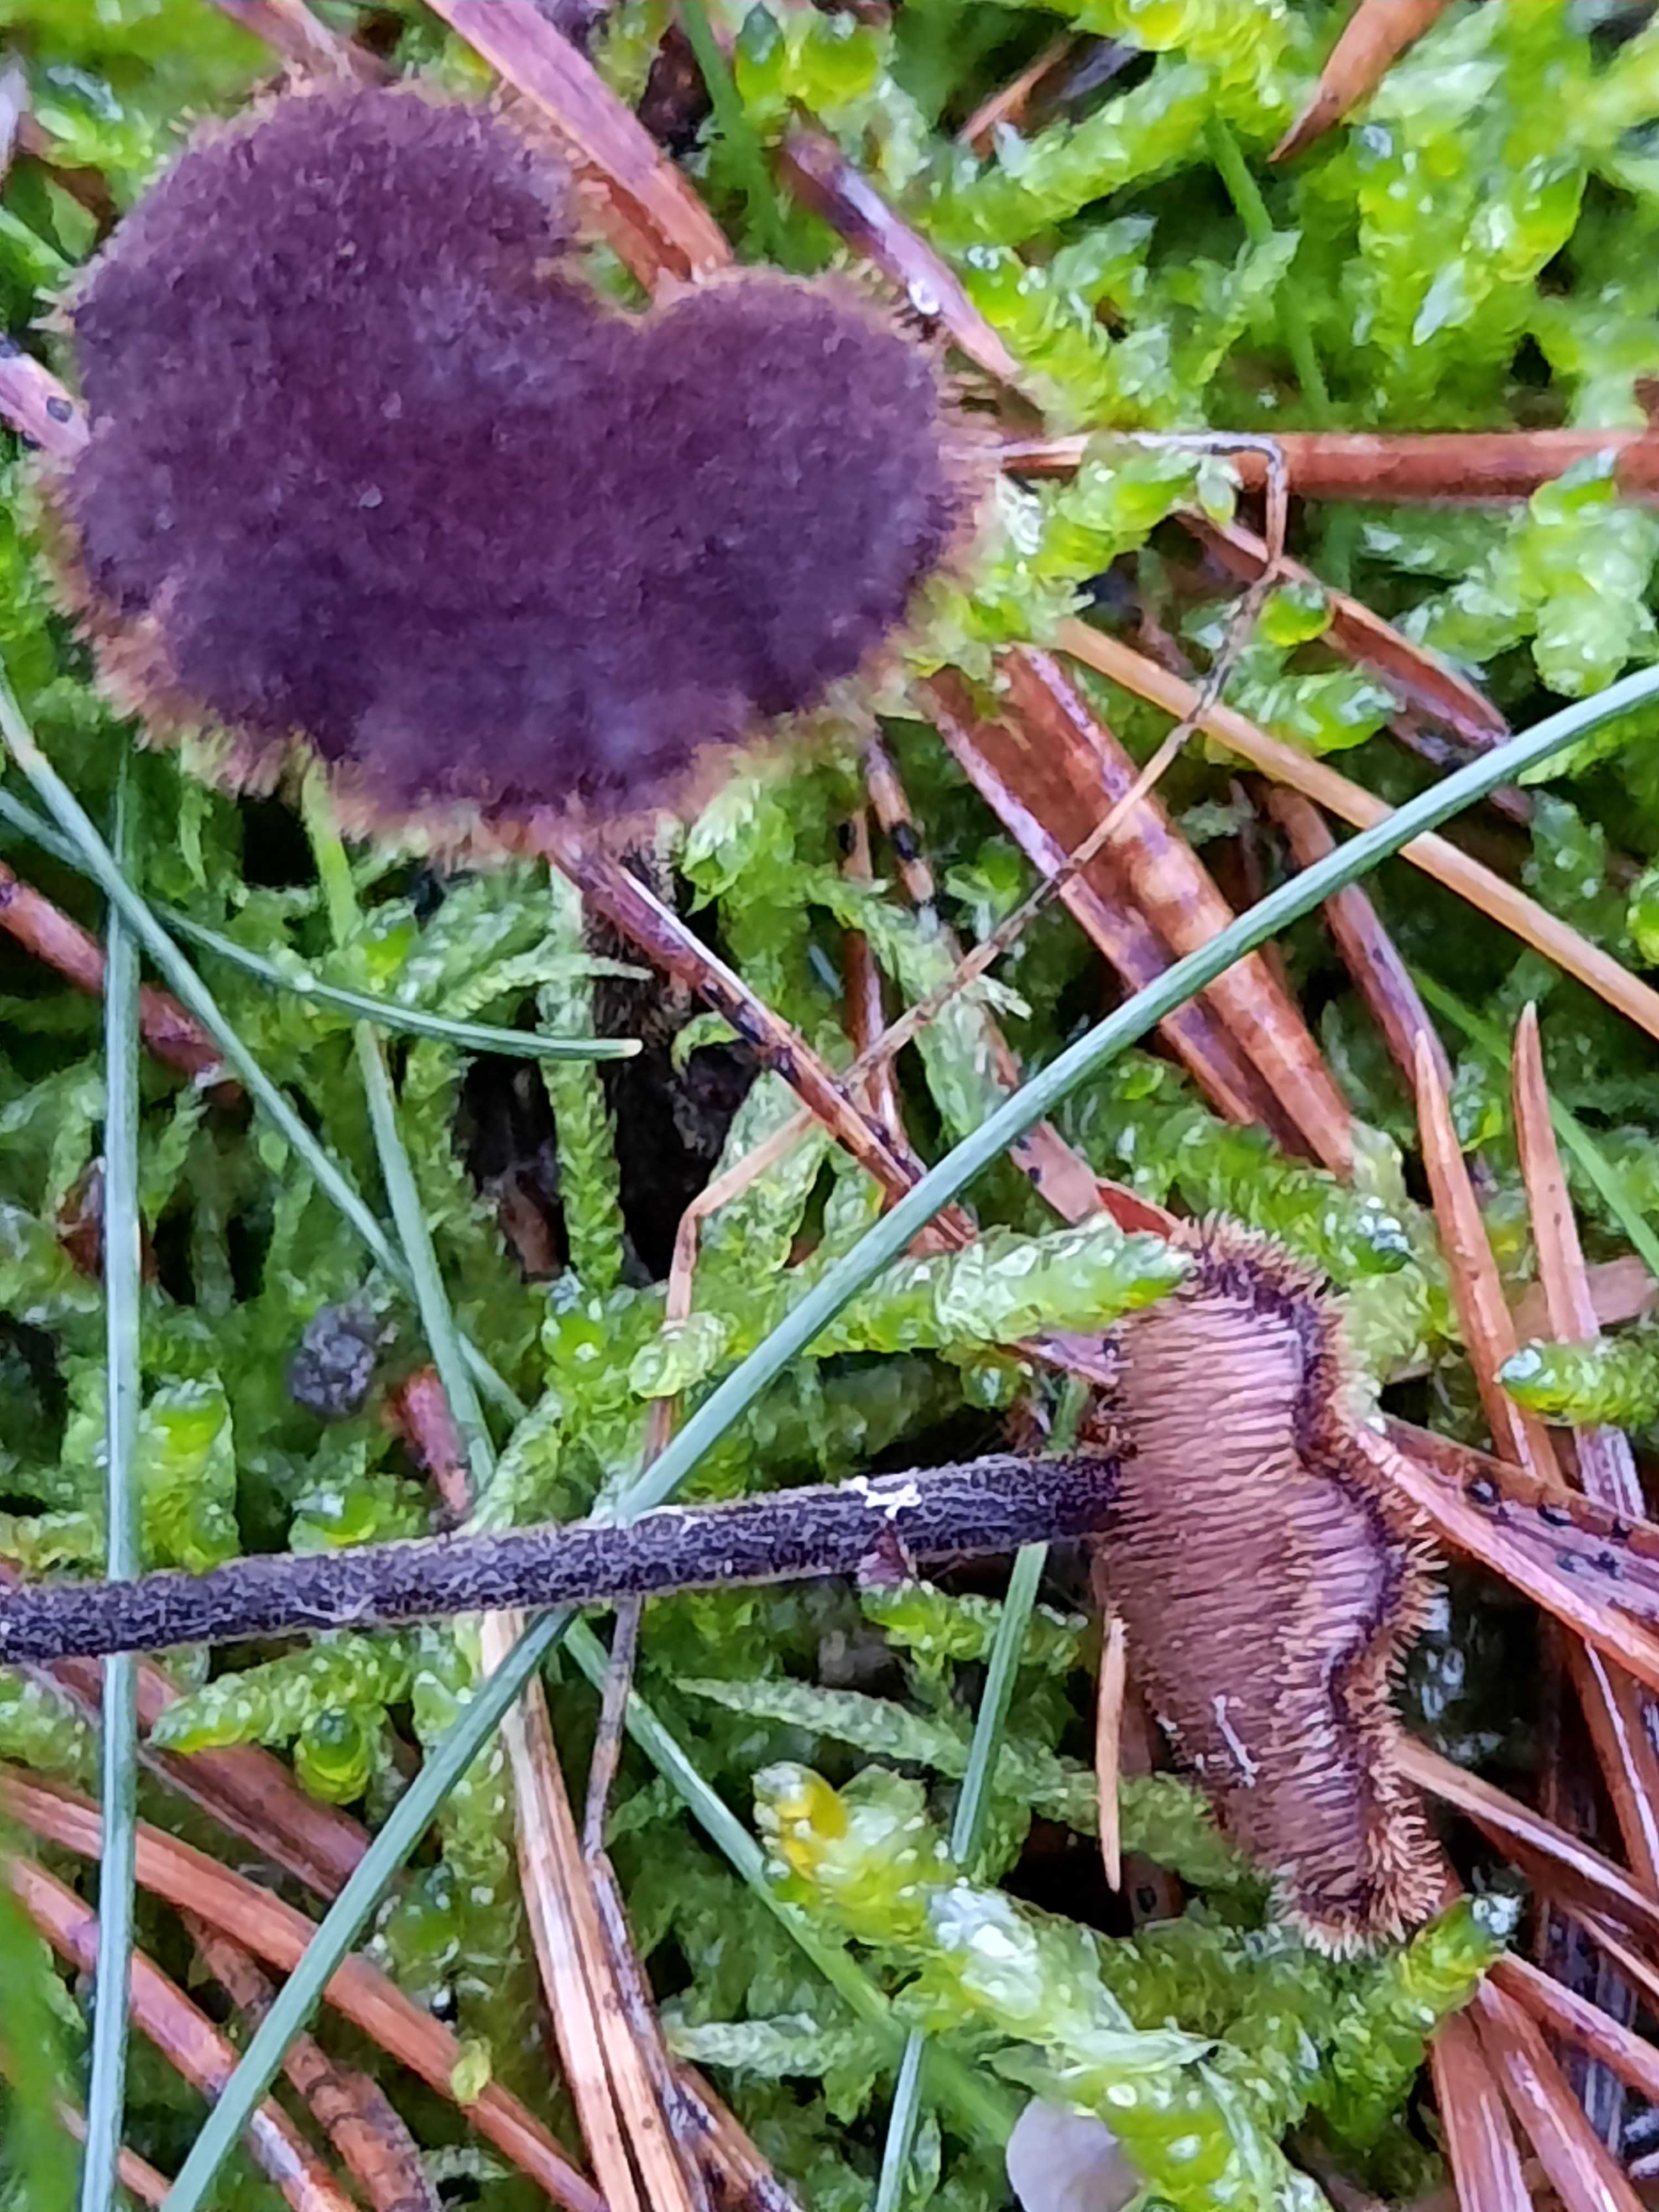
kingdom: Fungi
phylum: Basidiomycota
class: Agaricomycetes
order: Russulales
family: Auriscalpiaceae
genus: Auriscalpium
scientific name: Auriscalpium vulgare
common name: koglepigsvamp
